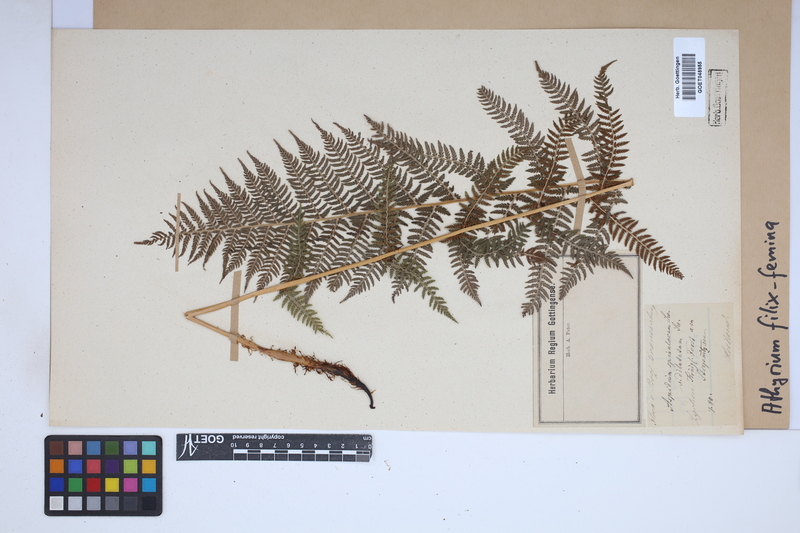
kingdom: Plantae
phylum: Tracheophyta
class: Polypodiopsida
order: Polypodiales
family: Athyriaceae
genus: Athyrium
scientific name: Athyrium filix-femina
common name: Lady fern
